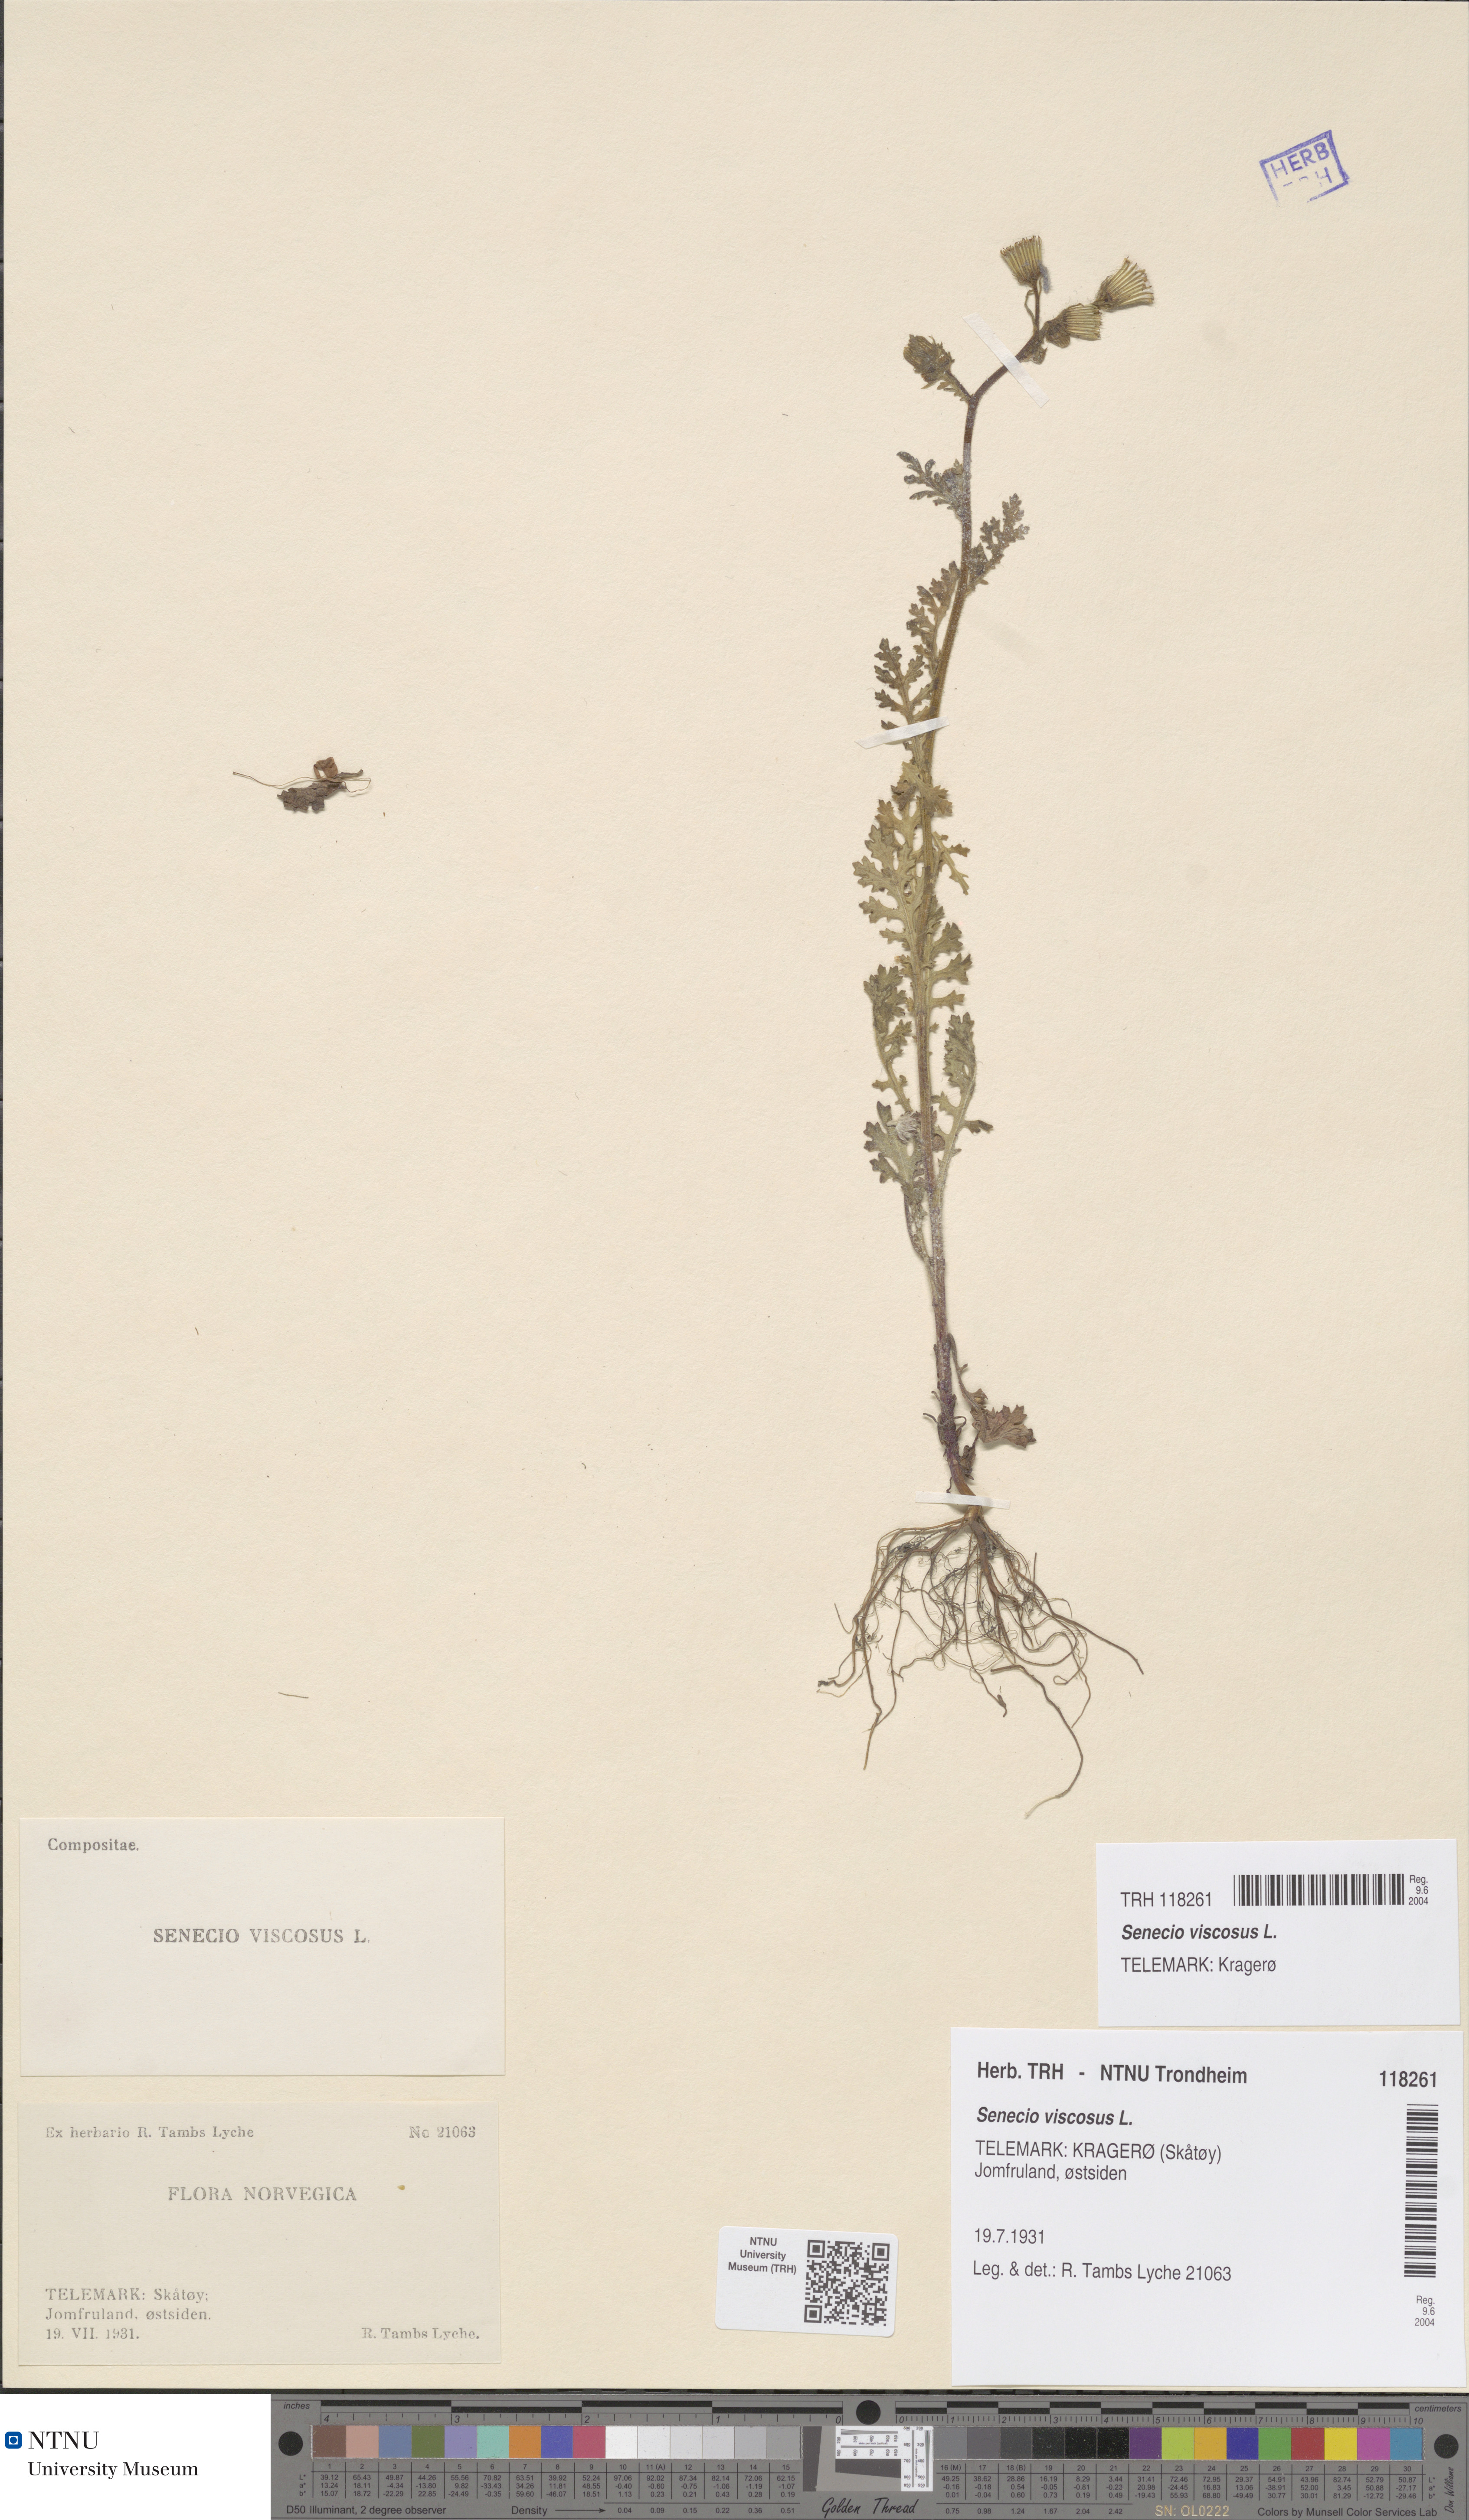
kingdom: Plantae
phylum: Tracheophyta
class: Magnoliopsida
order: Asterales
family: Asteraceae
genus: Senecio
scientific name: Senecio viscosus
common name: Sticky groundsel
